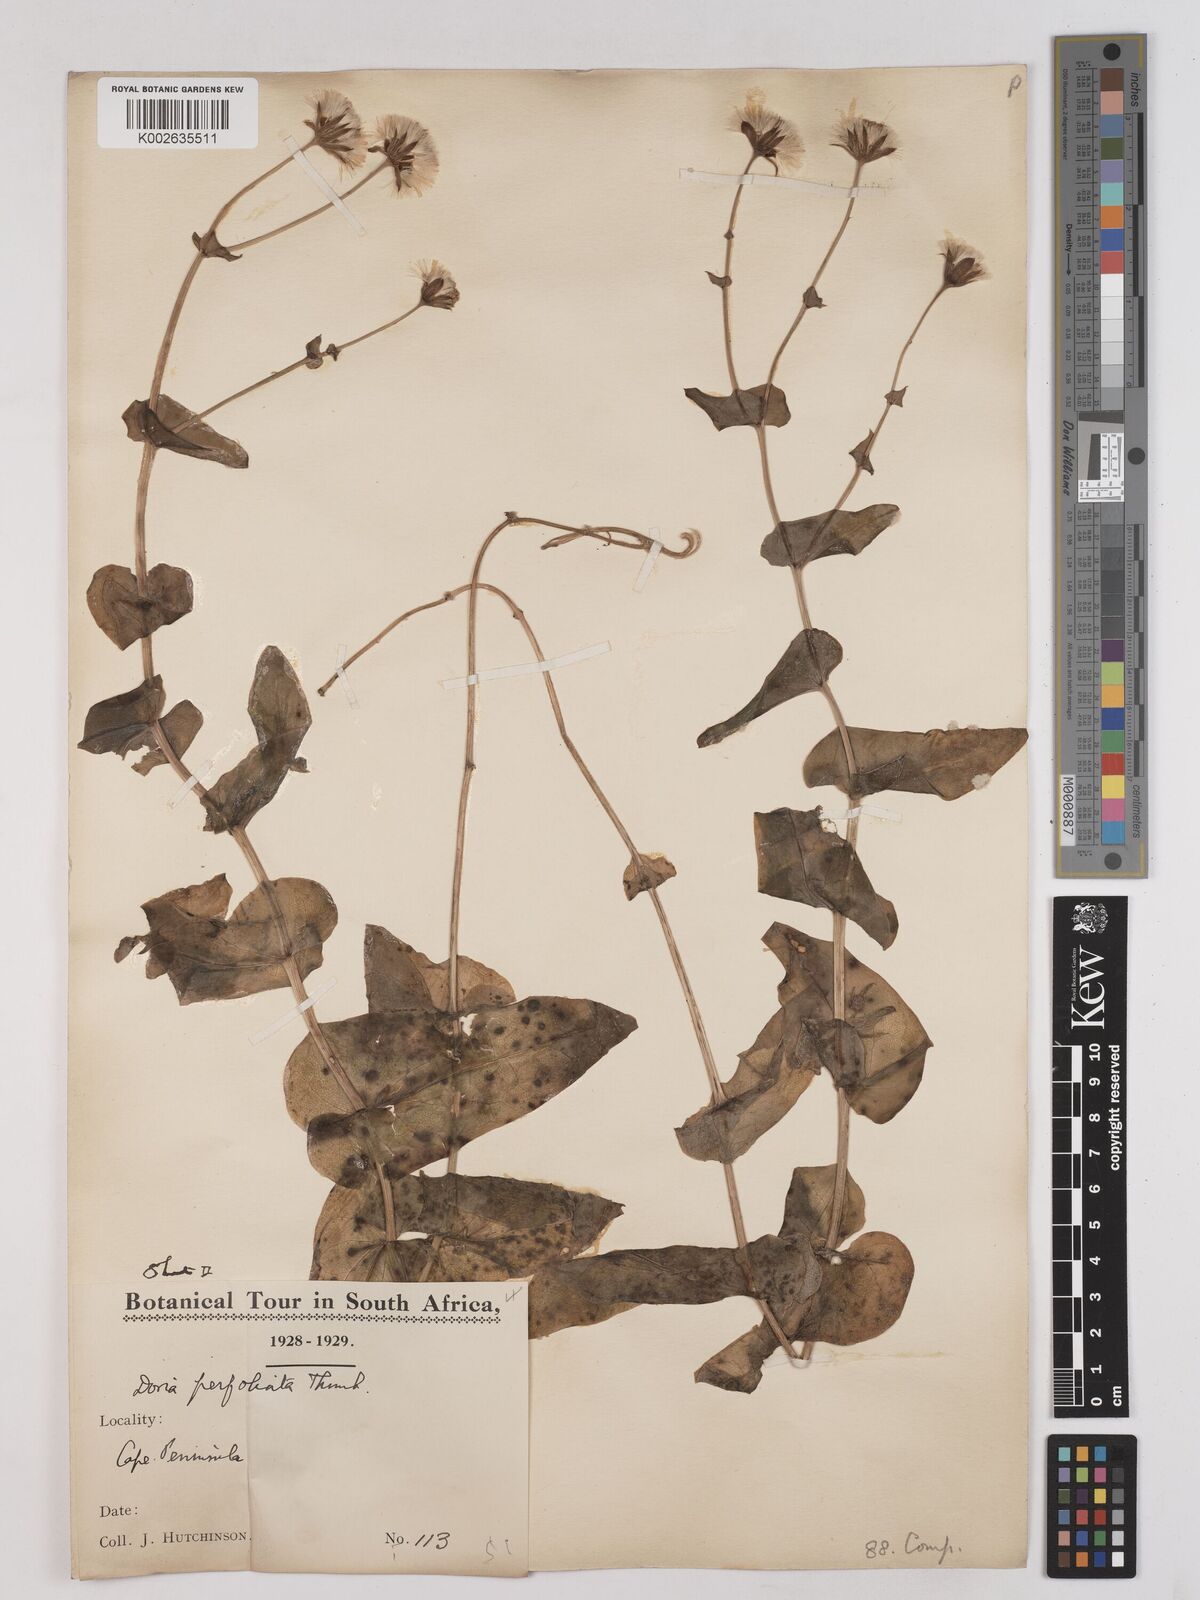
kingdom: Plantae
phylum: Tracheophyta
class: Magnoliopsida
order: Asterales
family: Asteraceae
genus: Othonna
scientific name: Othonna perfoliata
